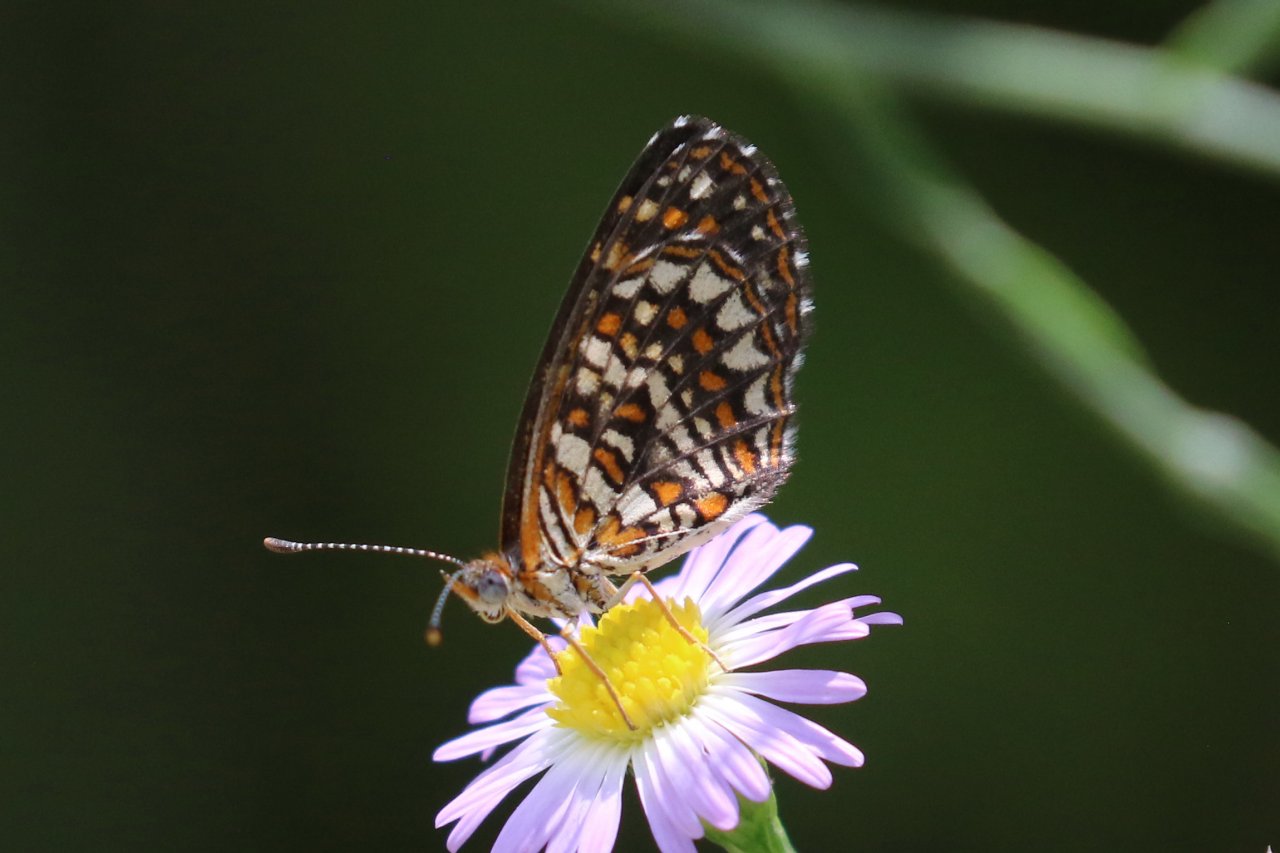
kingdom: Animalia
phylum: Arthropoda
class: Insecta
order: Lepidoptera
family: Nymphalidae
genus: Texola
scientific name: Texola elada
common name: Elada Checkerspot
